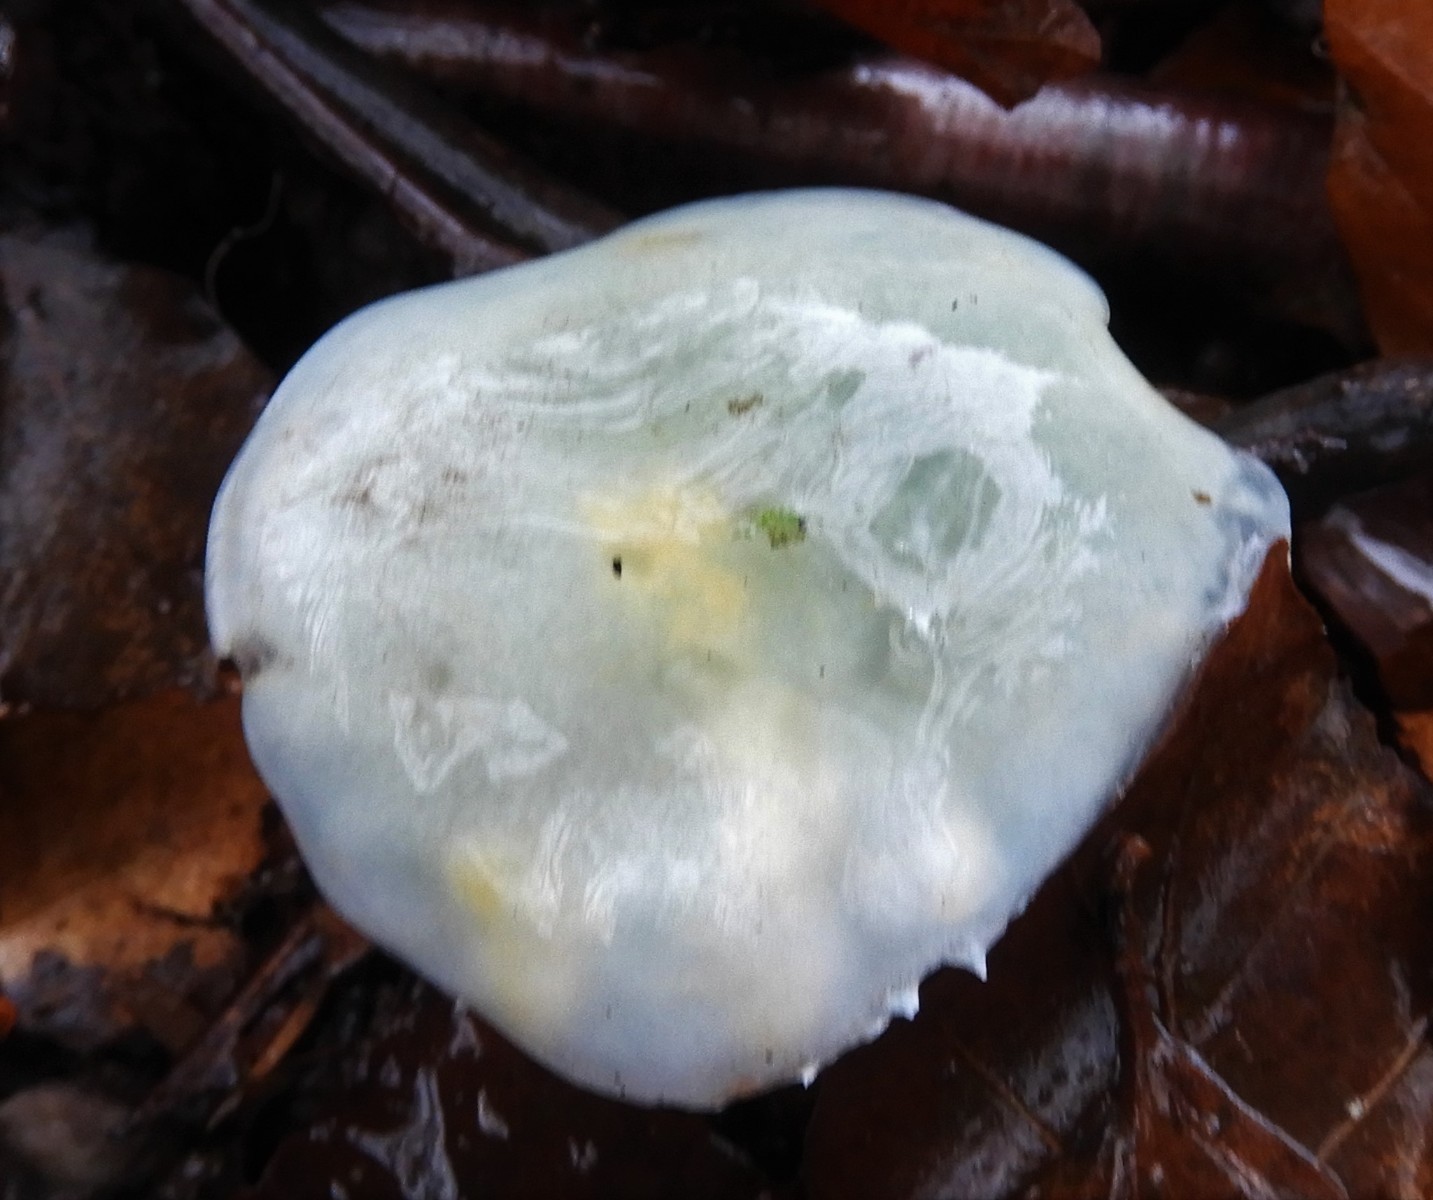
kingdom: Fungi
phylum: Basidiomycota
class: Agaricomycetes
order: Agaricales
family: Strophariaceae
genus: Stropharia
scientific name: Stropharia cyanea
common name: blågrøn bredblad
